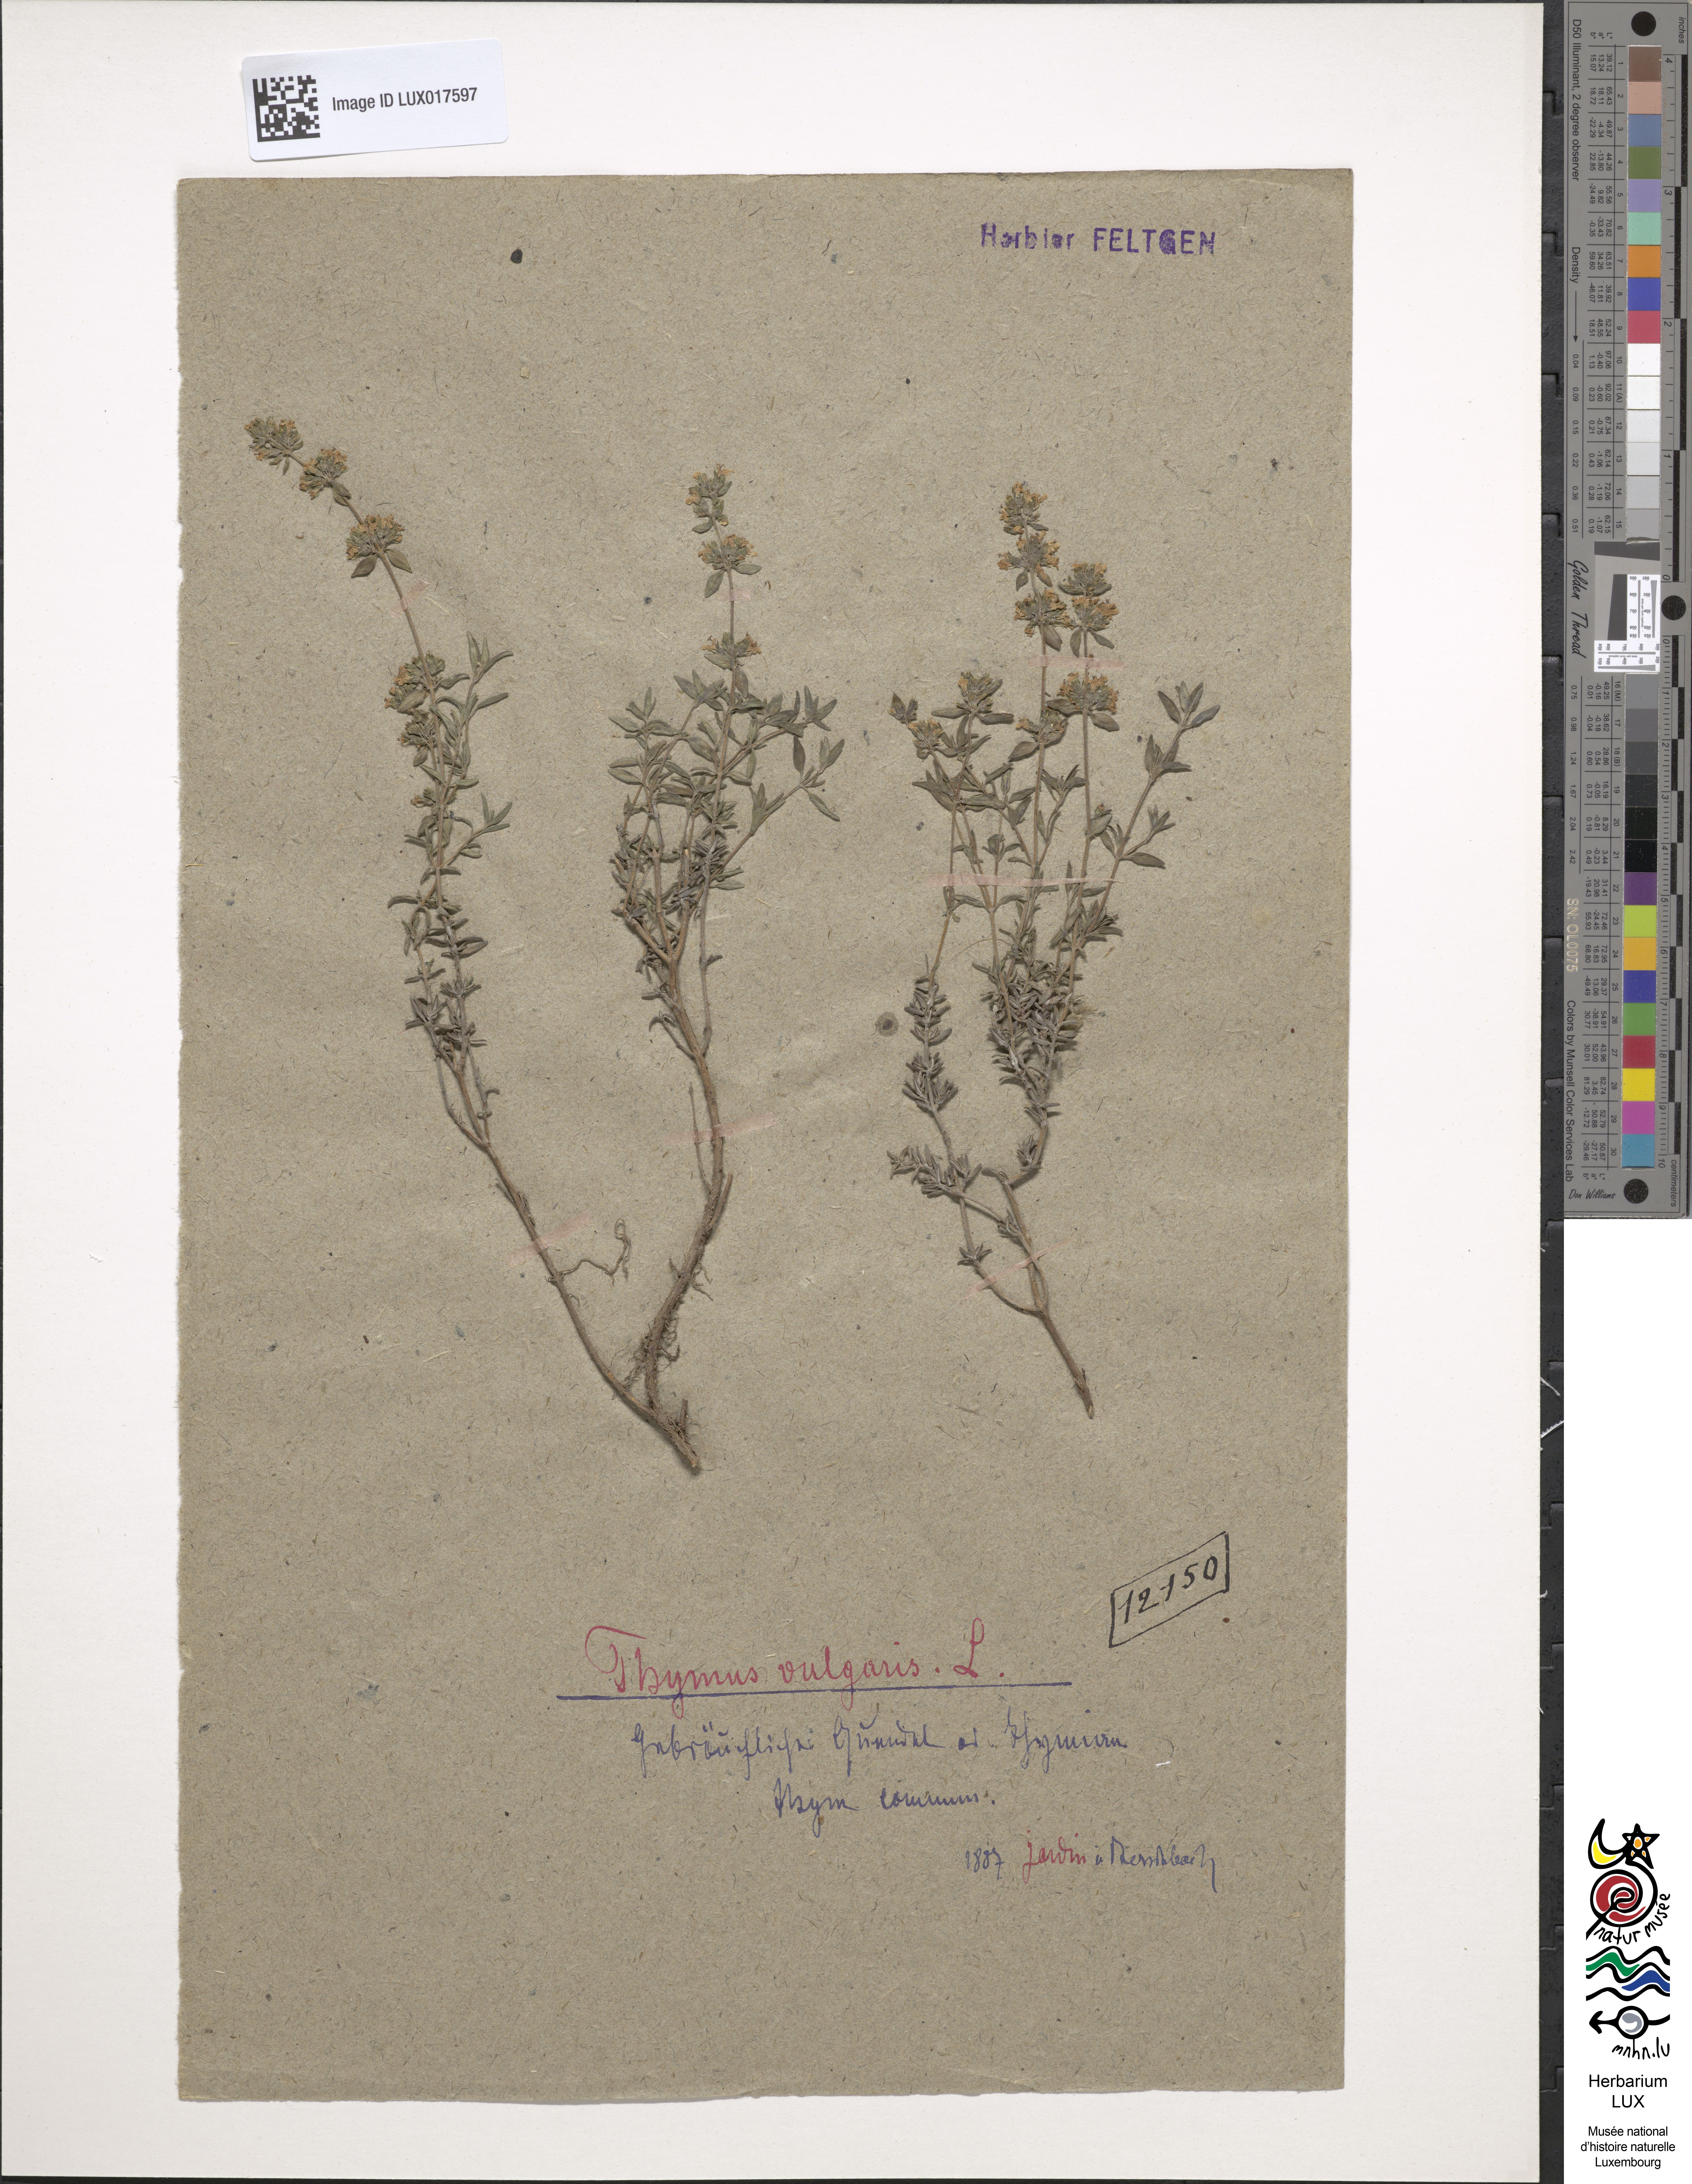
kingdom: Plantae
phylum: Tracheophyta
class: Magnoliopsida
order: Lamiales
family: Lamiaceae
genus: Thymus
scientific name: Thymus vulgaris
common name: Garden thyme
